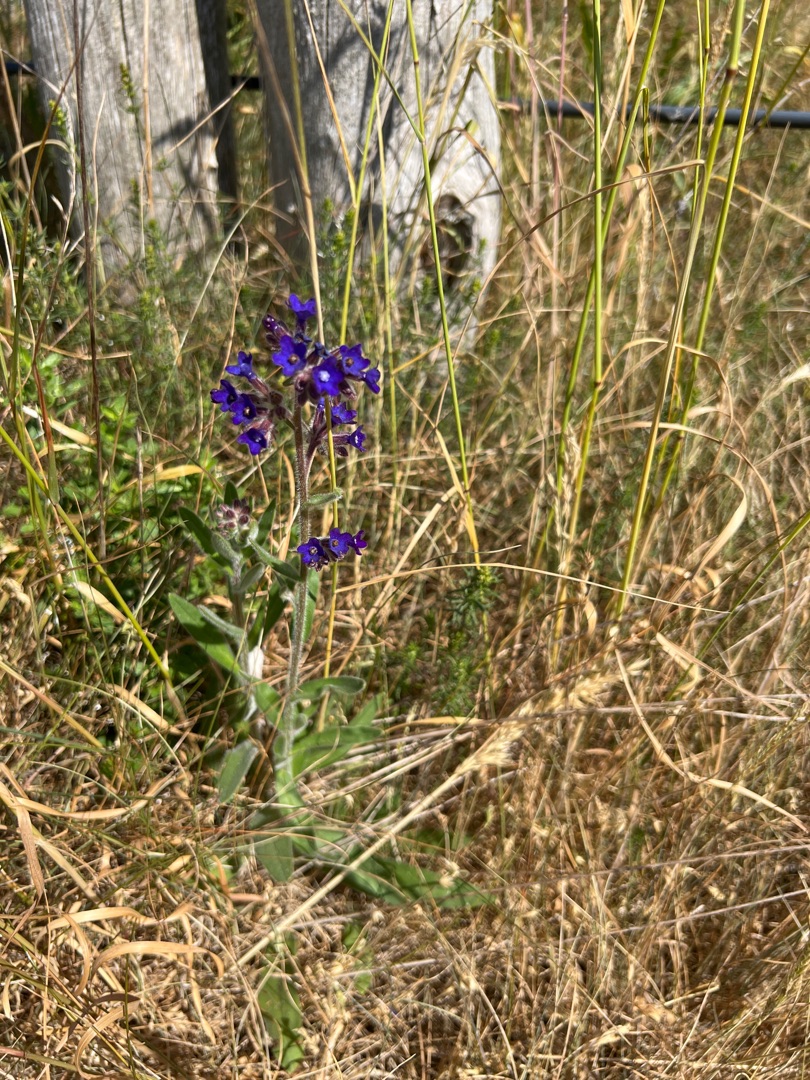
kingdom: Plantae
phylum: Tracheophyta
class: Magnoliopsida
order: Boraginales
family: Boraginaceae
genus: Anchusa
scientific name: Anchusa officinalis
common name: Læge-oksetunge
